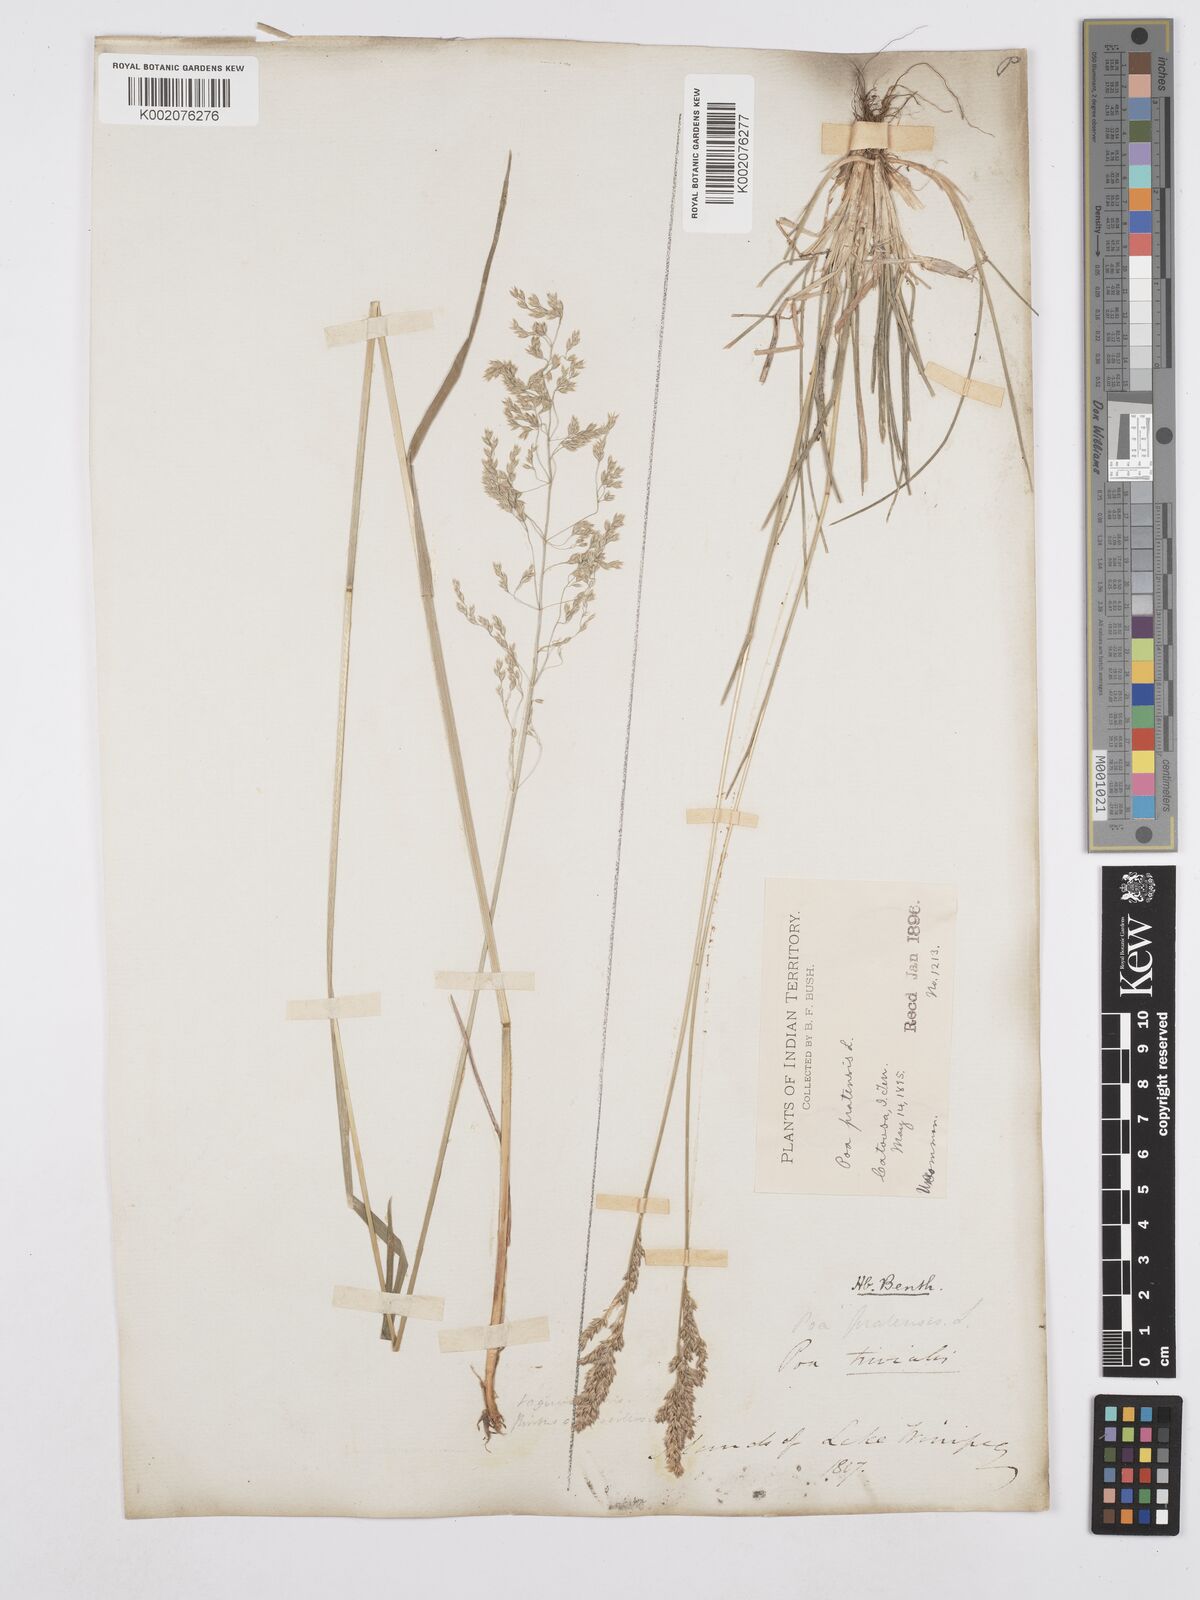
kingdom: Plantae
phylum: Tracheophyta
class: Liliopsida
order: Poales
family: Poaceae
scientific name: Poaceae
